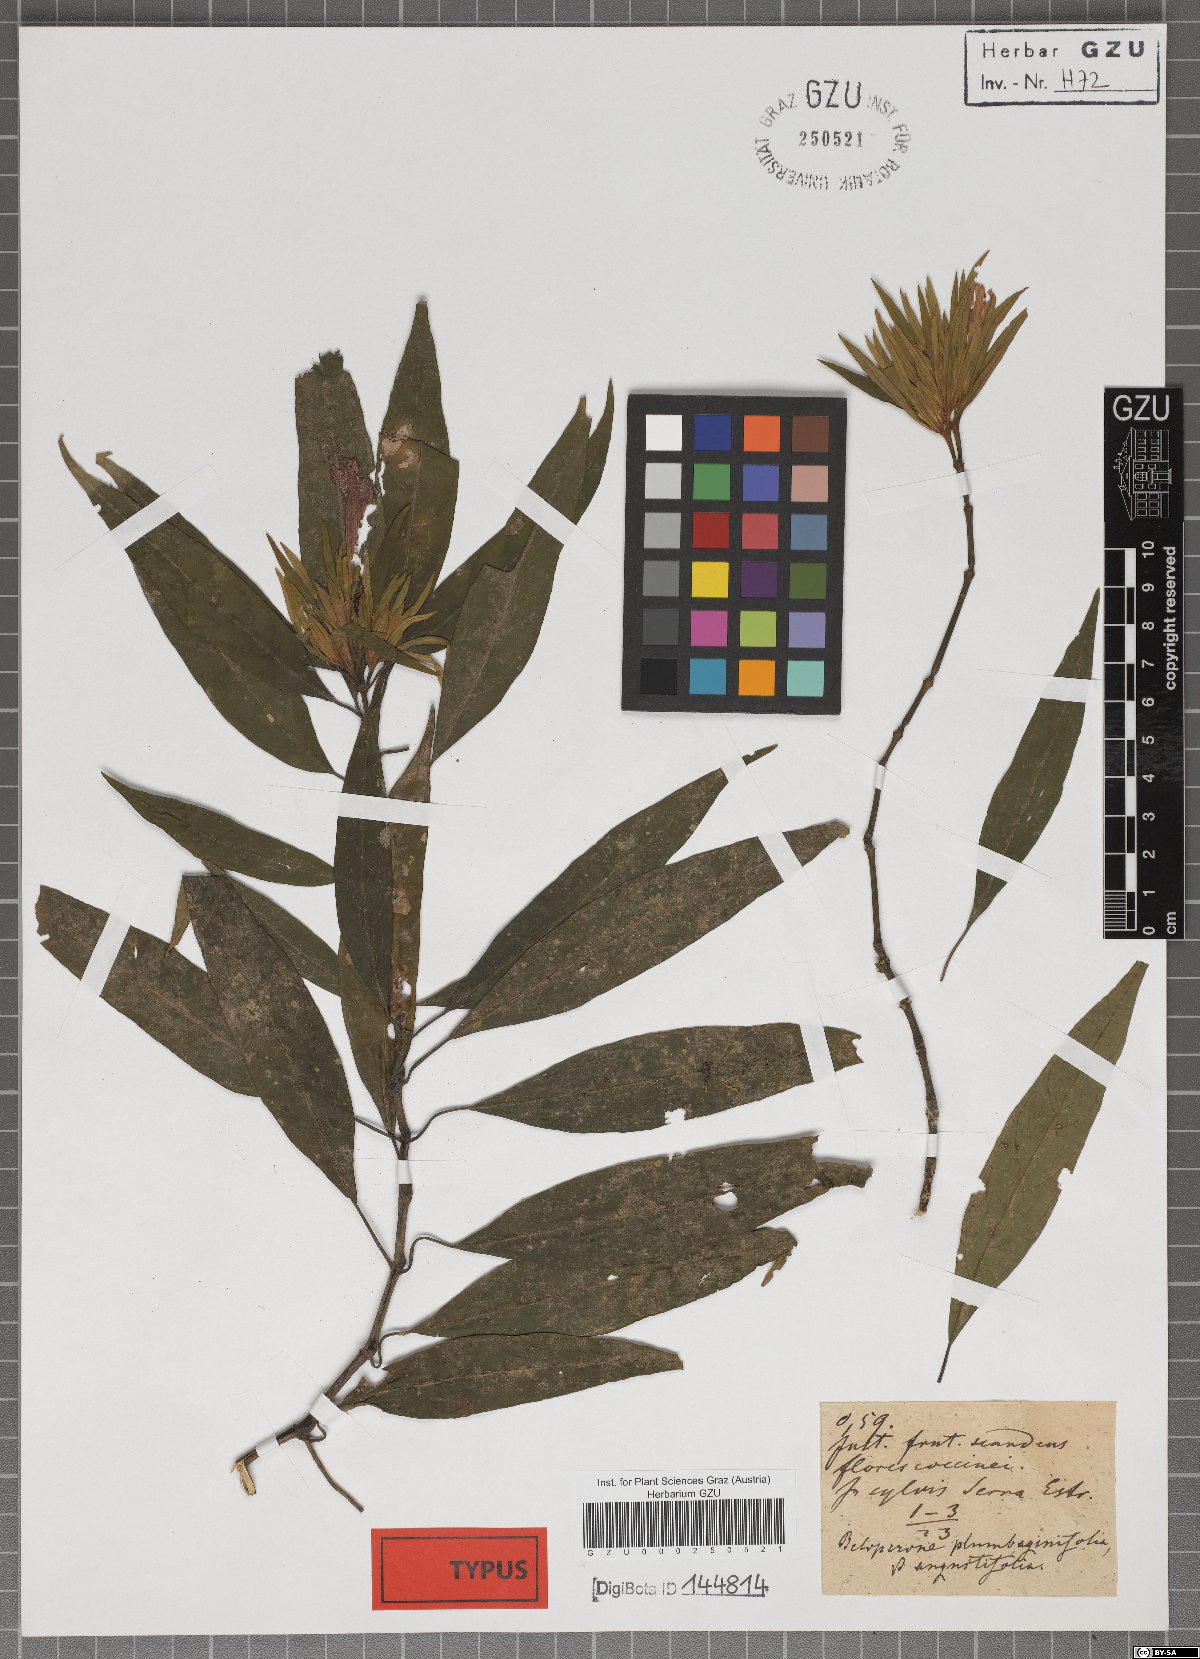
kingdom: Plantae
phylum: Tracheophyta
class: Magnoliopsida
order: Lamiales
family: Acanthaceae
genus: Justicia
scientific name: Justicia plumbaginifolia
